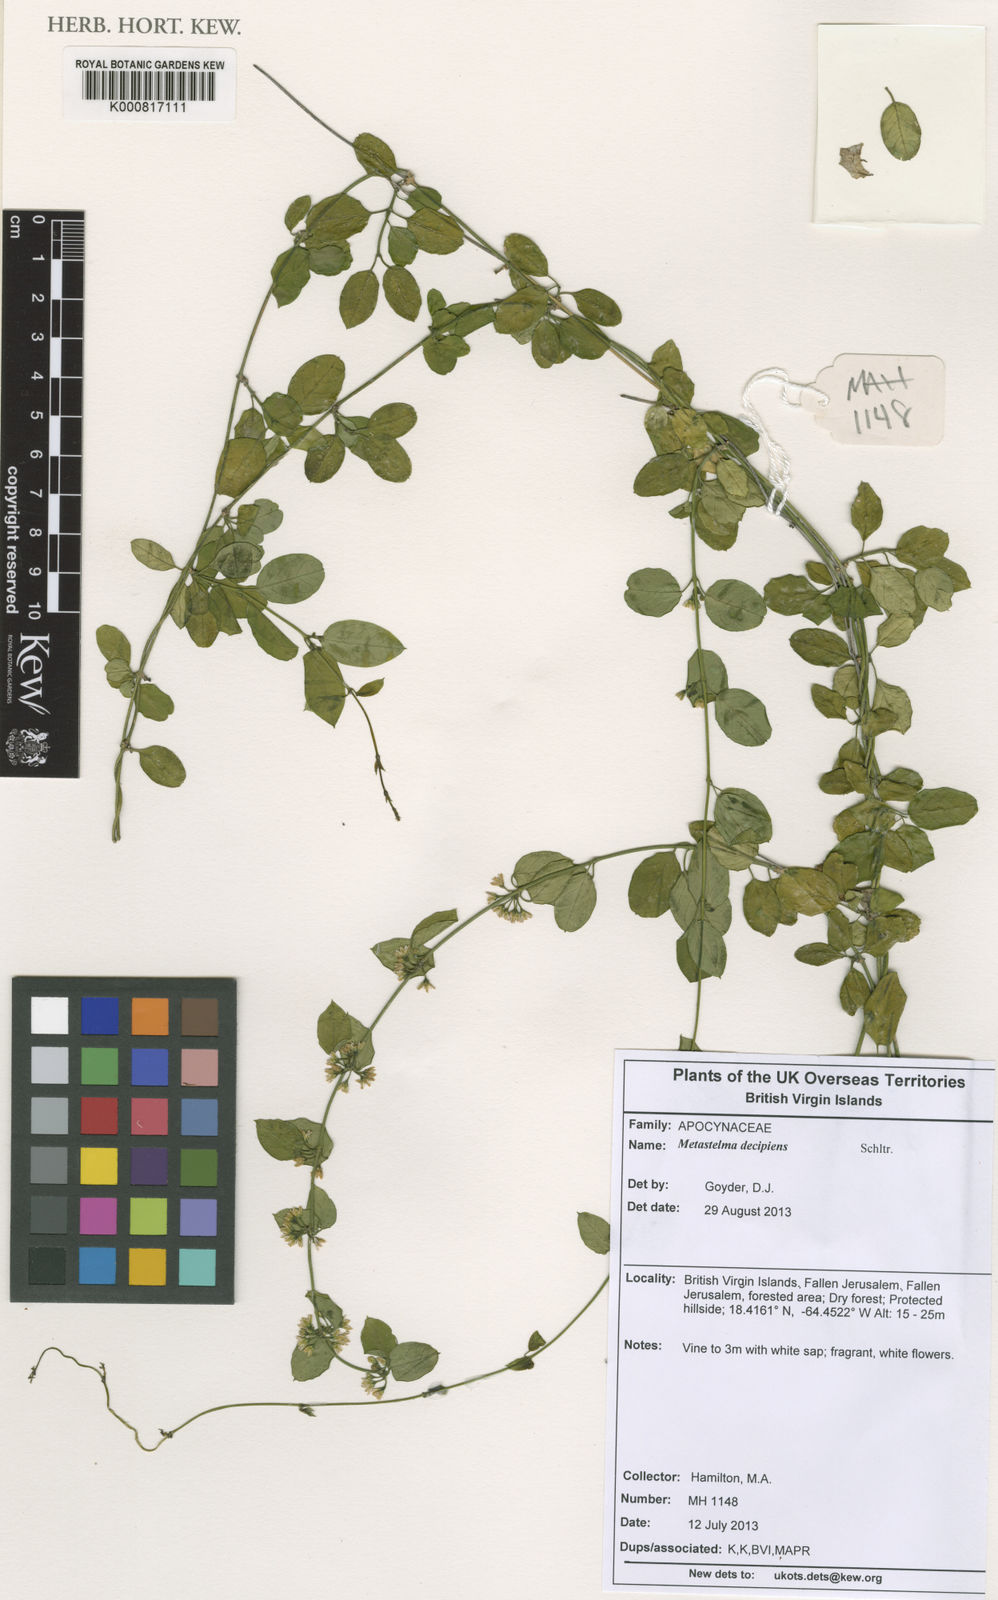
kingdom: Plantae
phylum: Tracheophyta
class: Magnoliopsida
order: Gentianales
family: Apocynaceae
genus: Metastelma
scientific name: Metastelma decipiens
